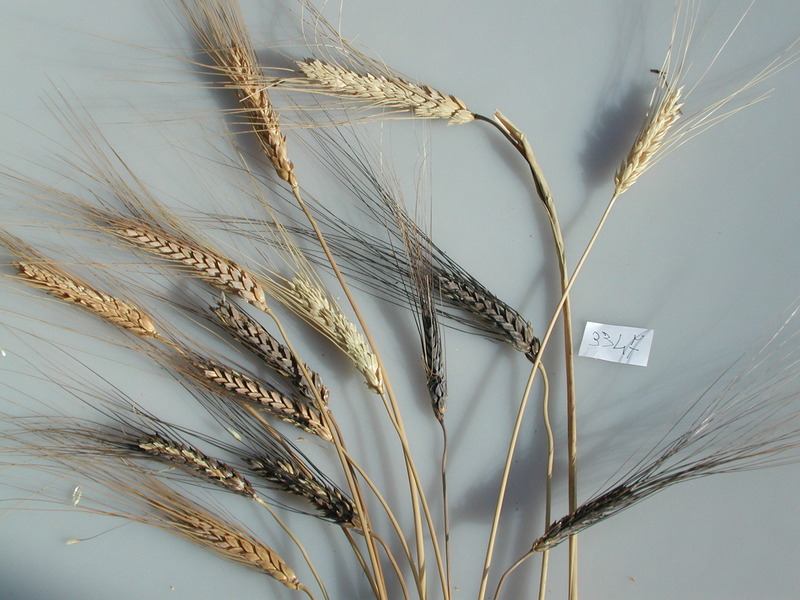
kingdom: Plantae
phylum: Tracheophyta
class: Liliopsida
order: Poales
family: Poaceae
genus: Triticum
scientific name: Triticum turgidum
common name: Wheat
